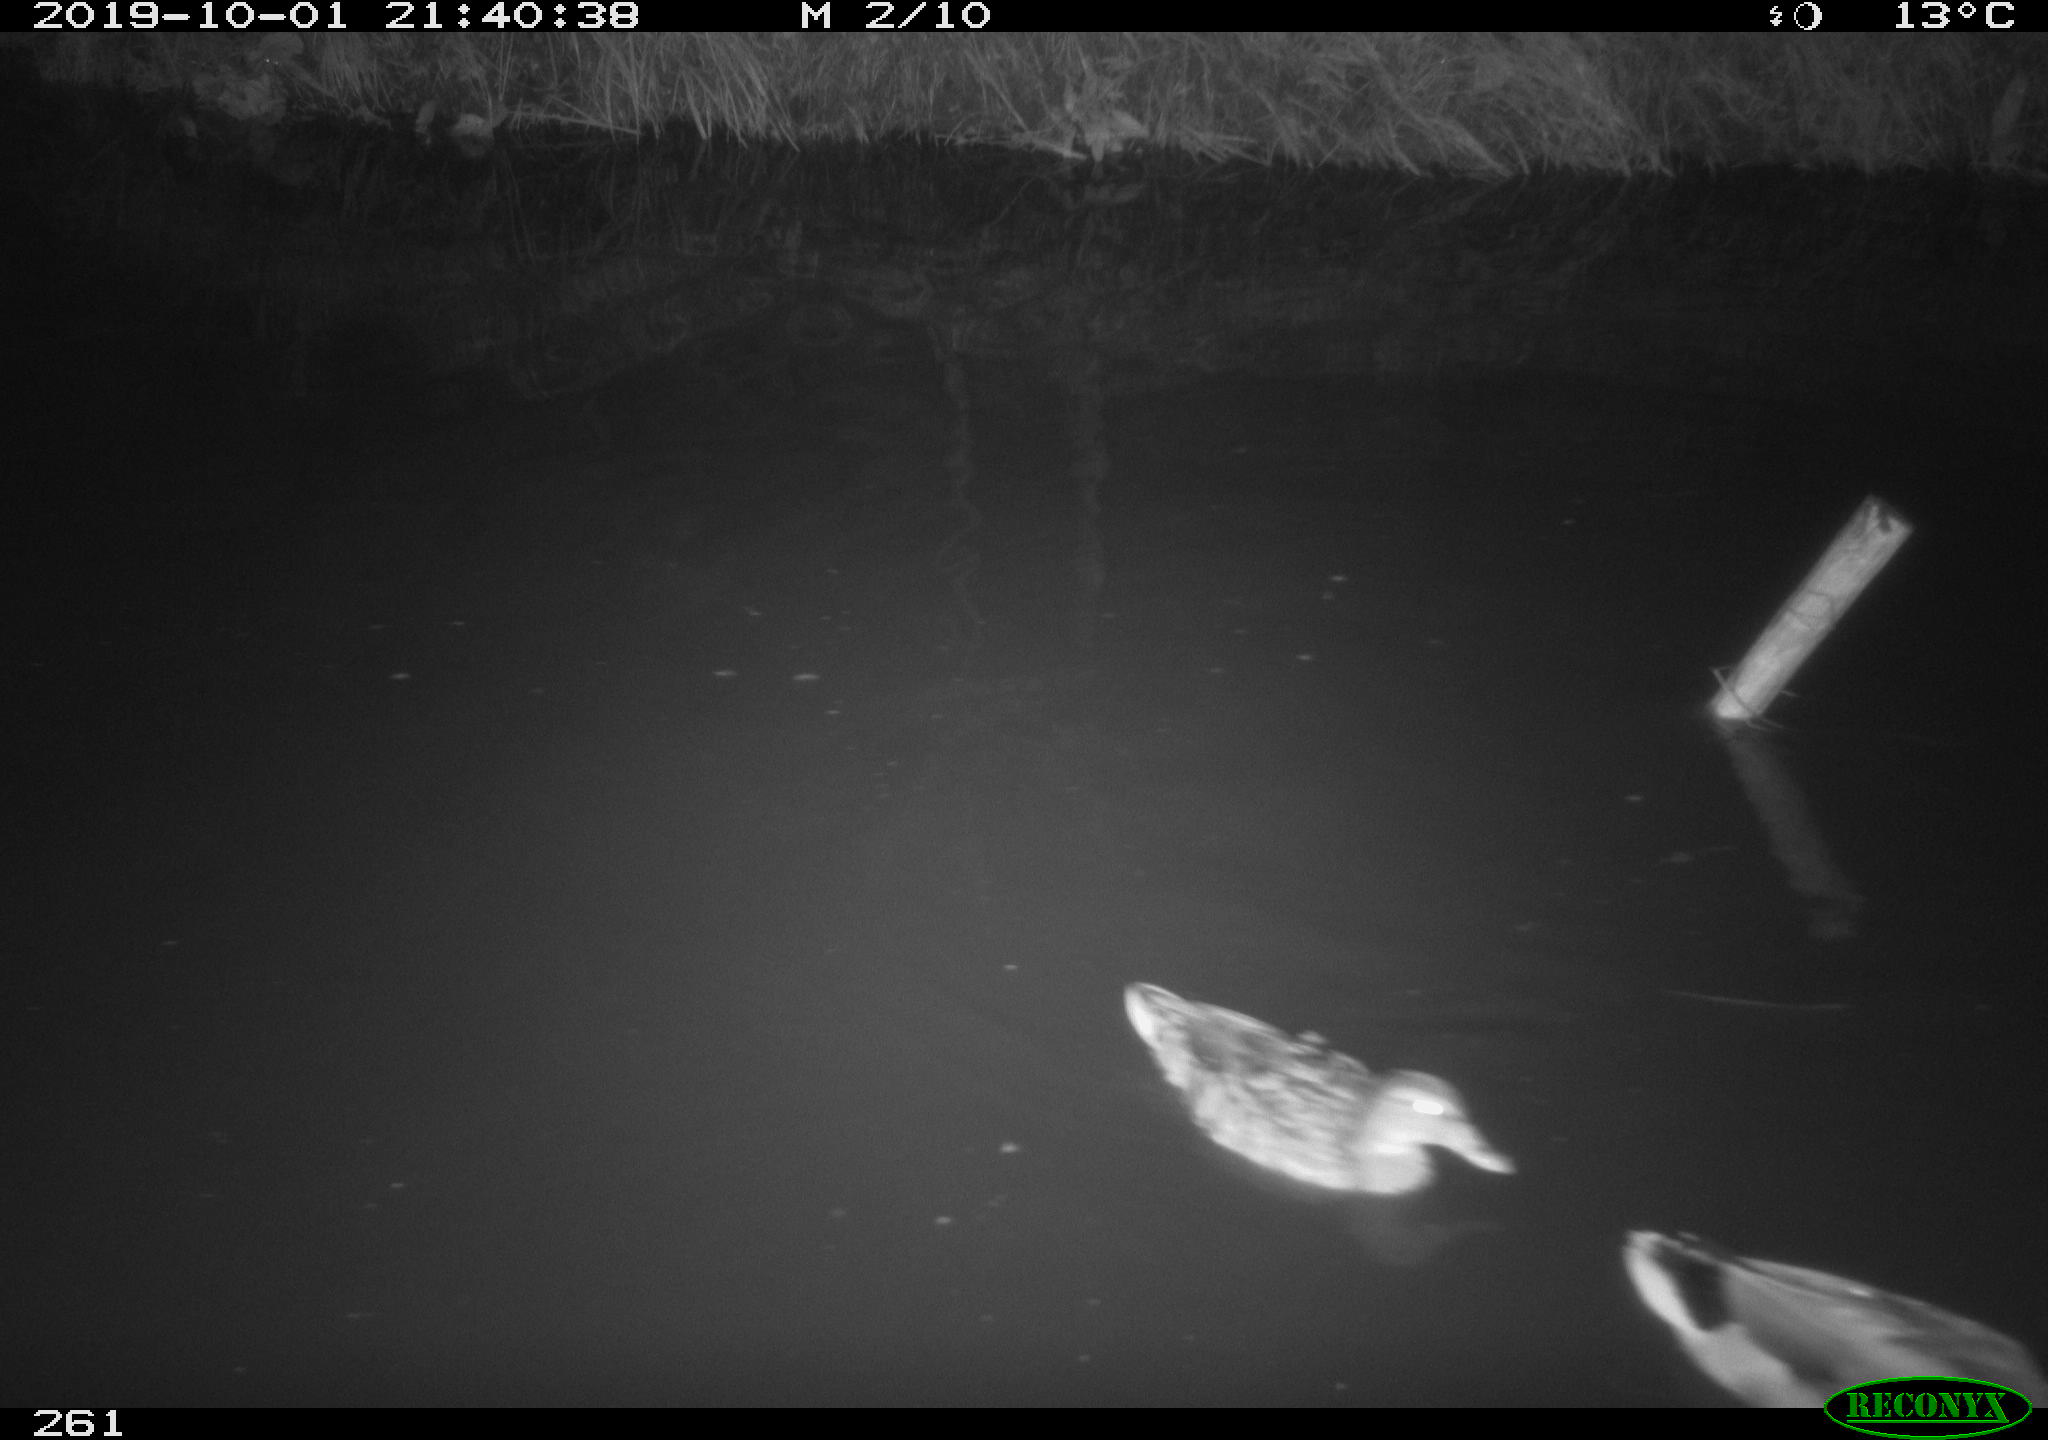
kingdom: Animalia
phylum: Chordata
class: Aves
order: Anseriformes
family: Anatidae
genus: Anas
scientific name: Anas platyrhynchos
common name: Mallard
